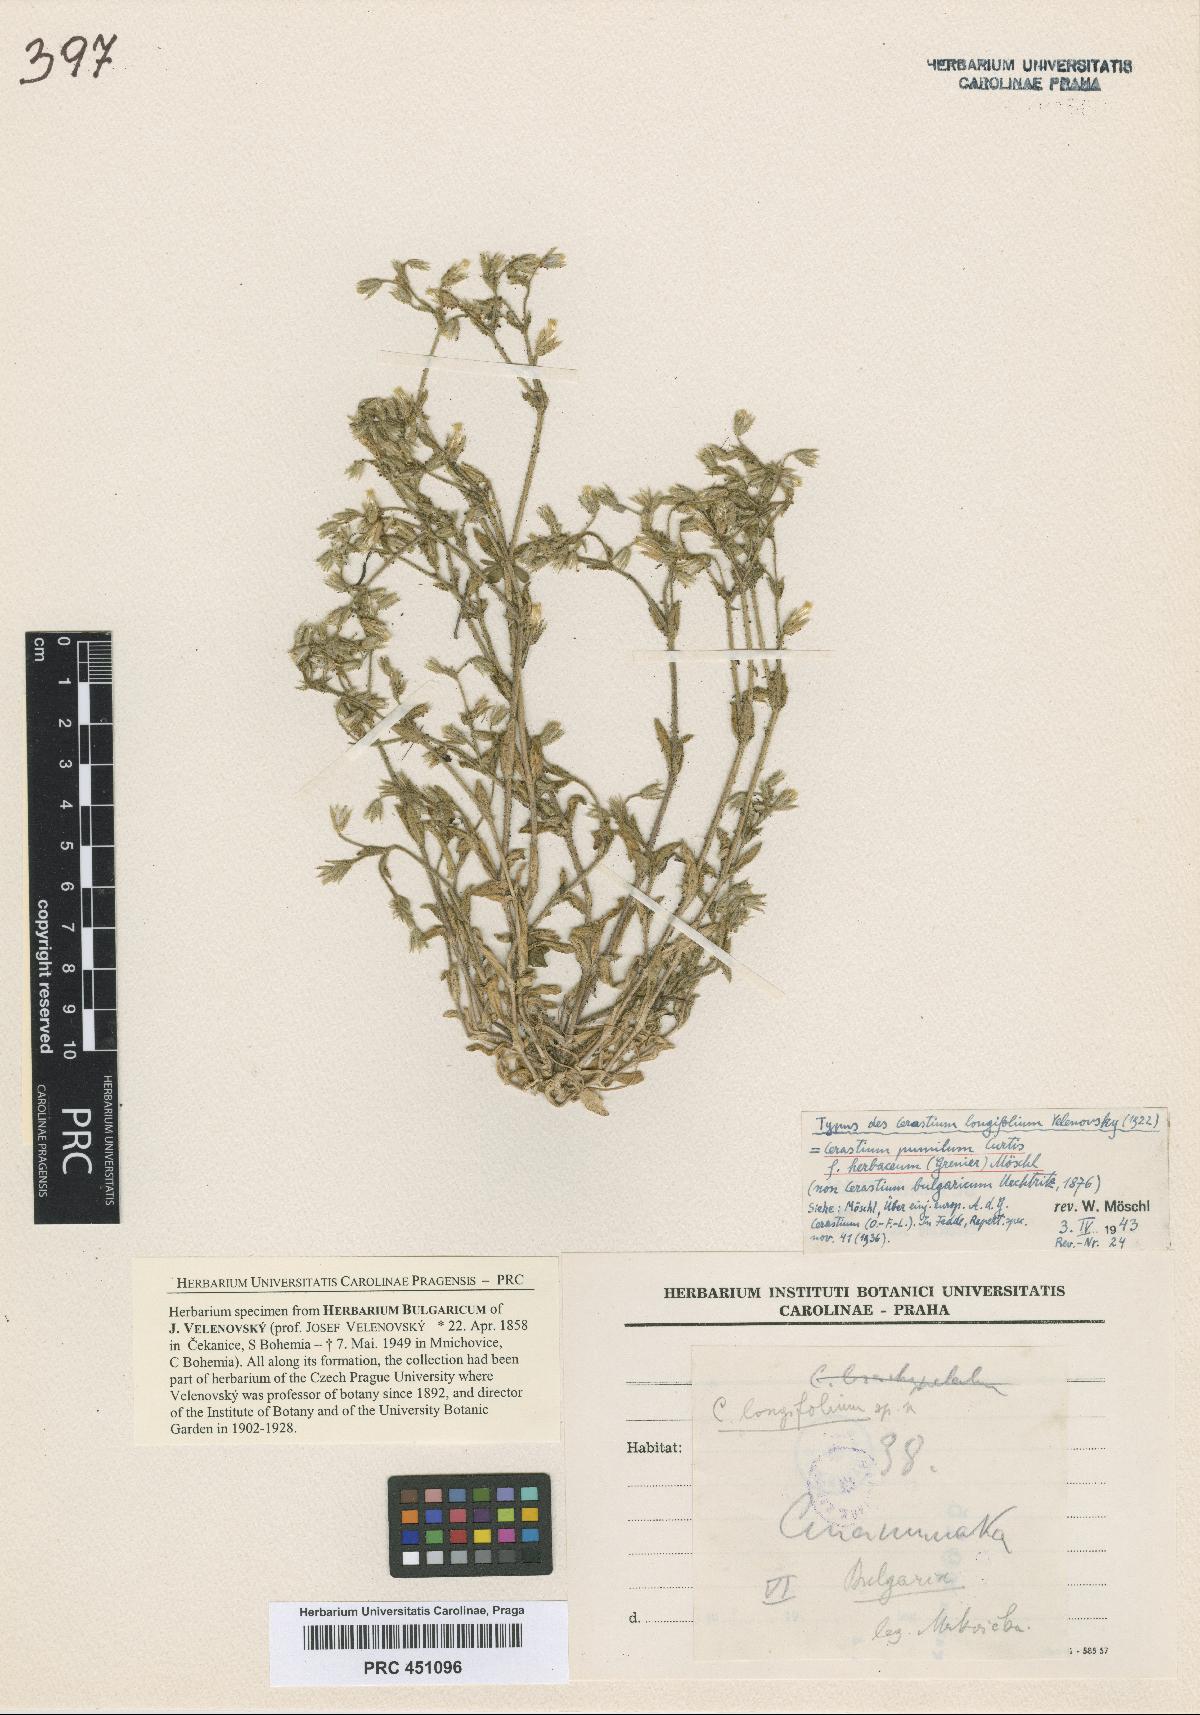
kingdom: Plantae
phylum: Tracheophyta
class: Magnoliopsida
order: Caryophyllales
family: Caryophyllaceae
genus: Cerastium
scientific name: Cerastium longifolium
